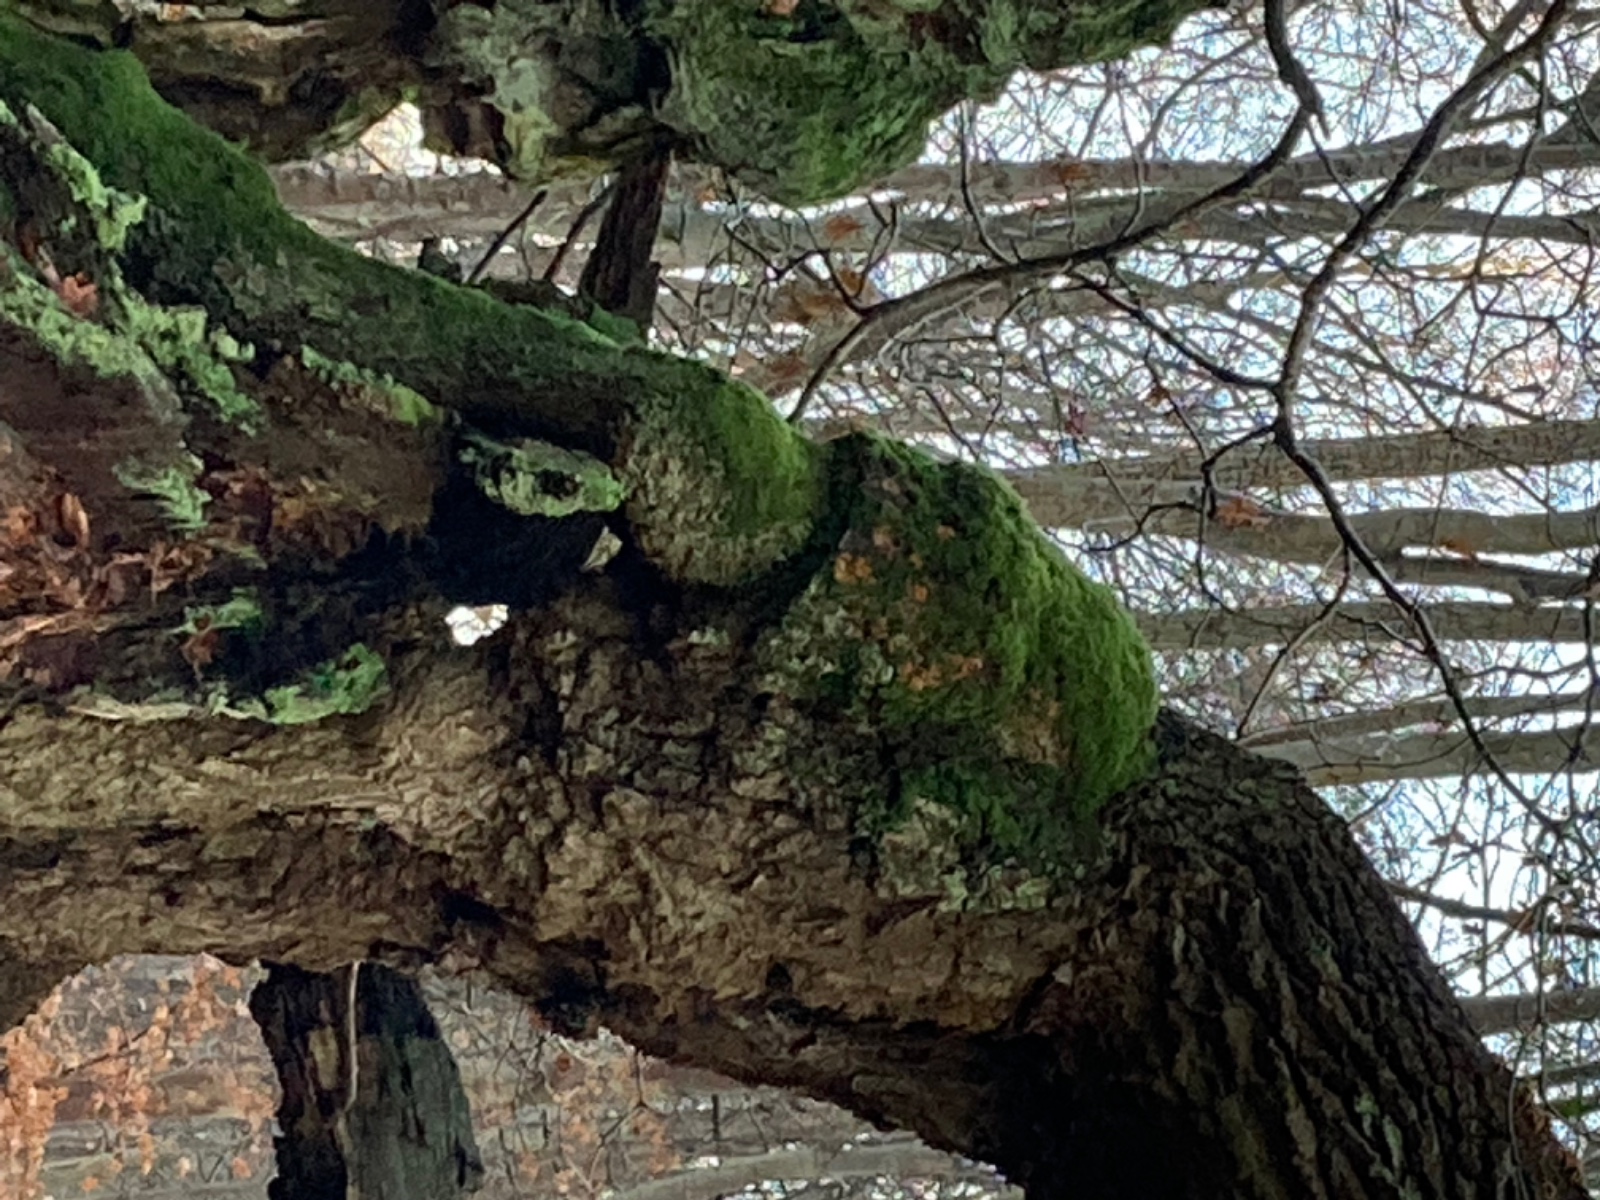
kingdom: Fungi
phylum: Basidiomycota
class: Agaricomycetes
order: Polyporales
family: Meruliaceae
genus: Phlebia
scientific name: Phlebia radiata
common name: stråle-åresvamp
